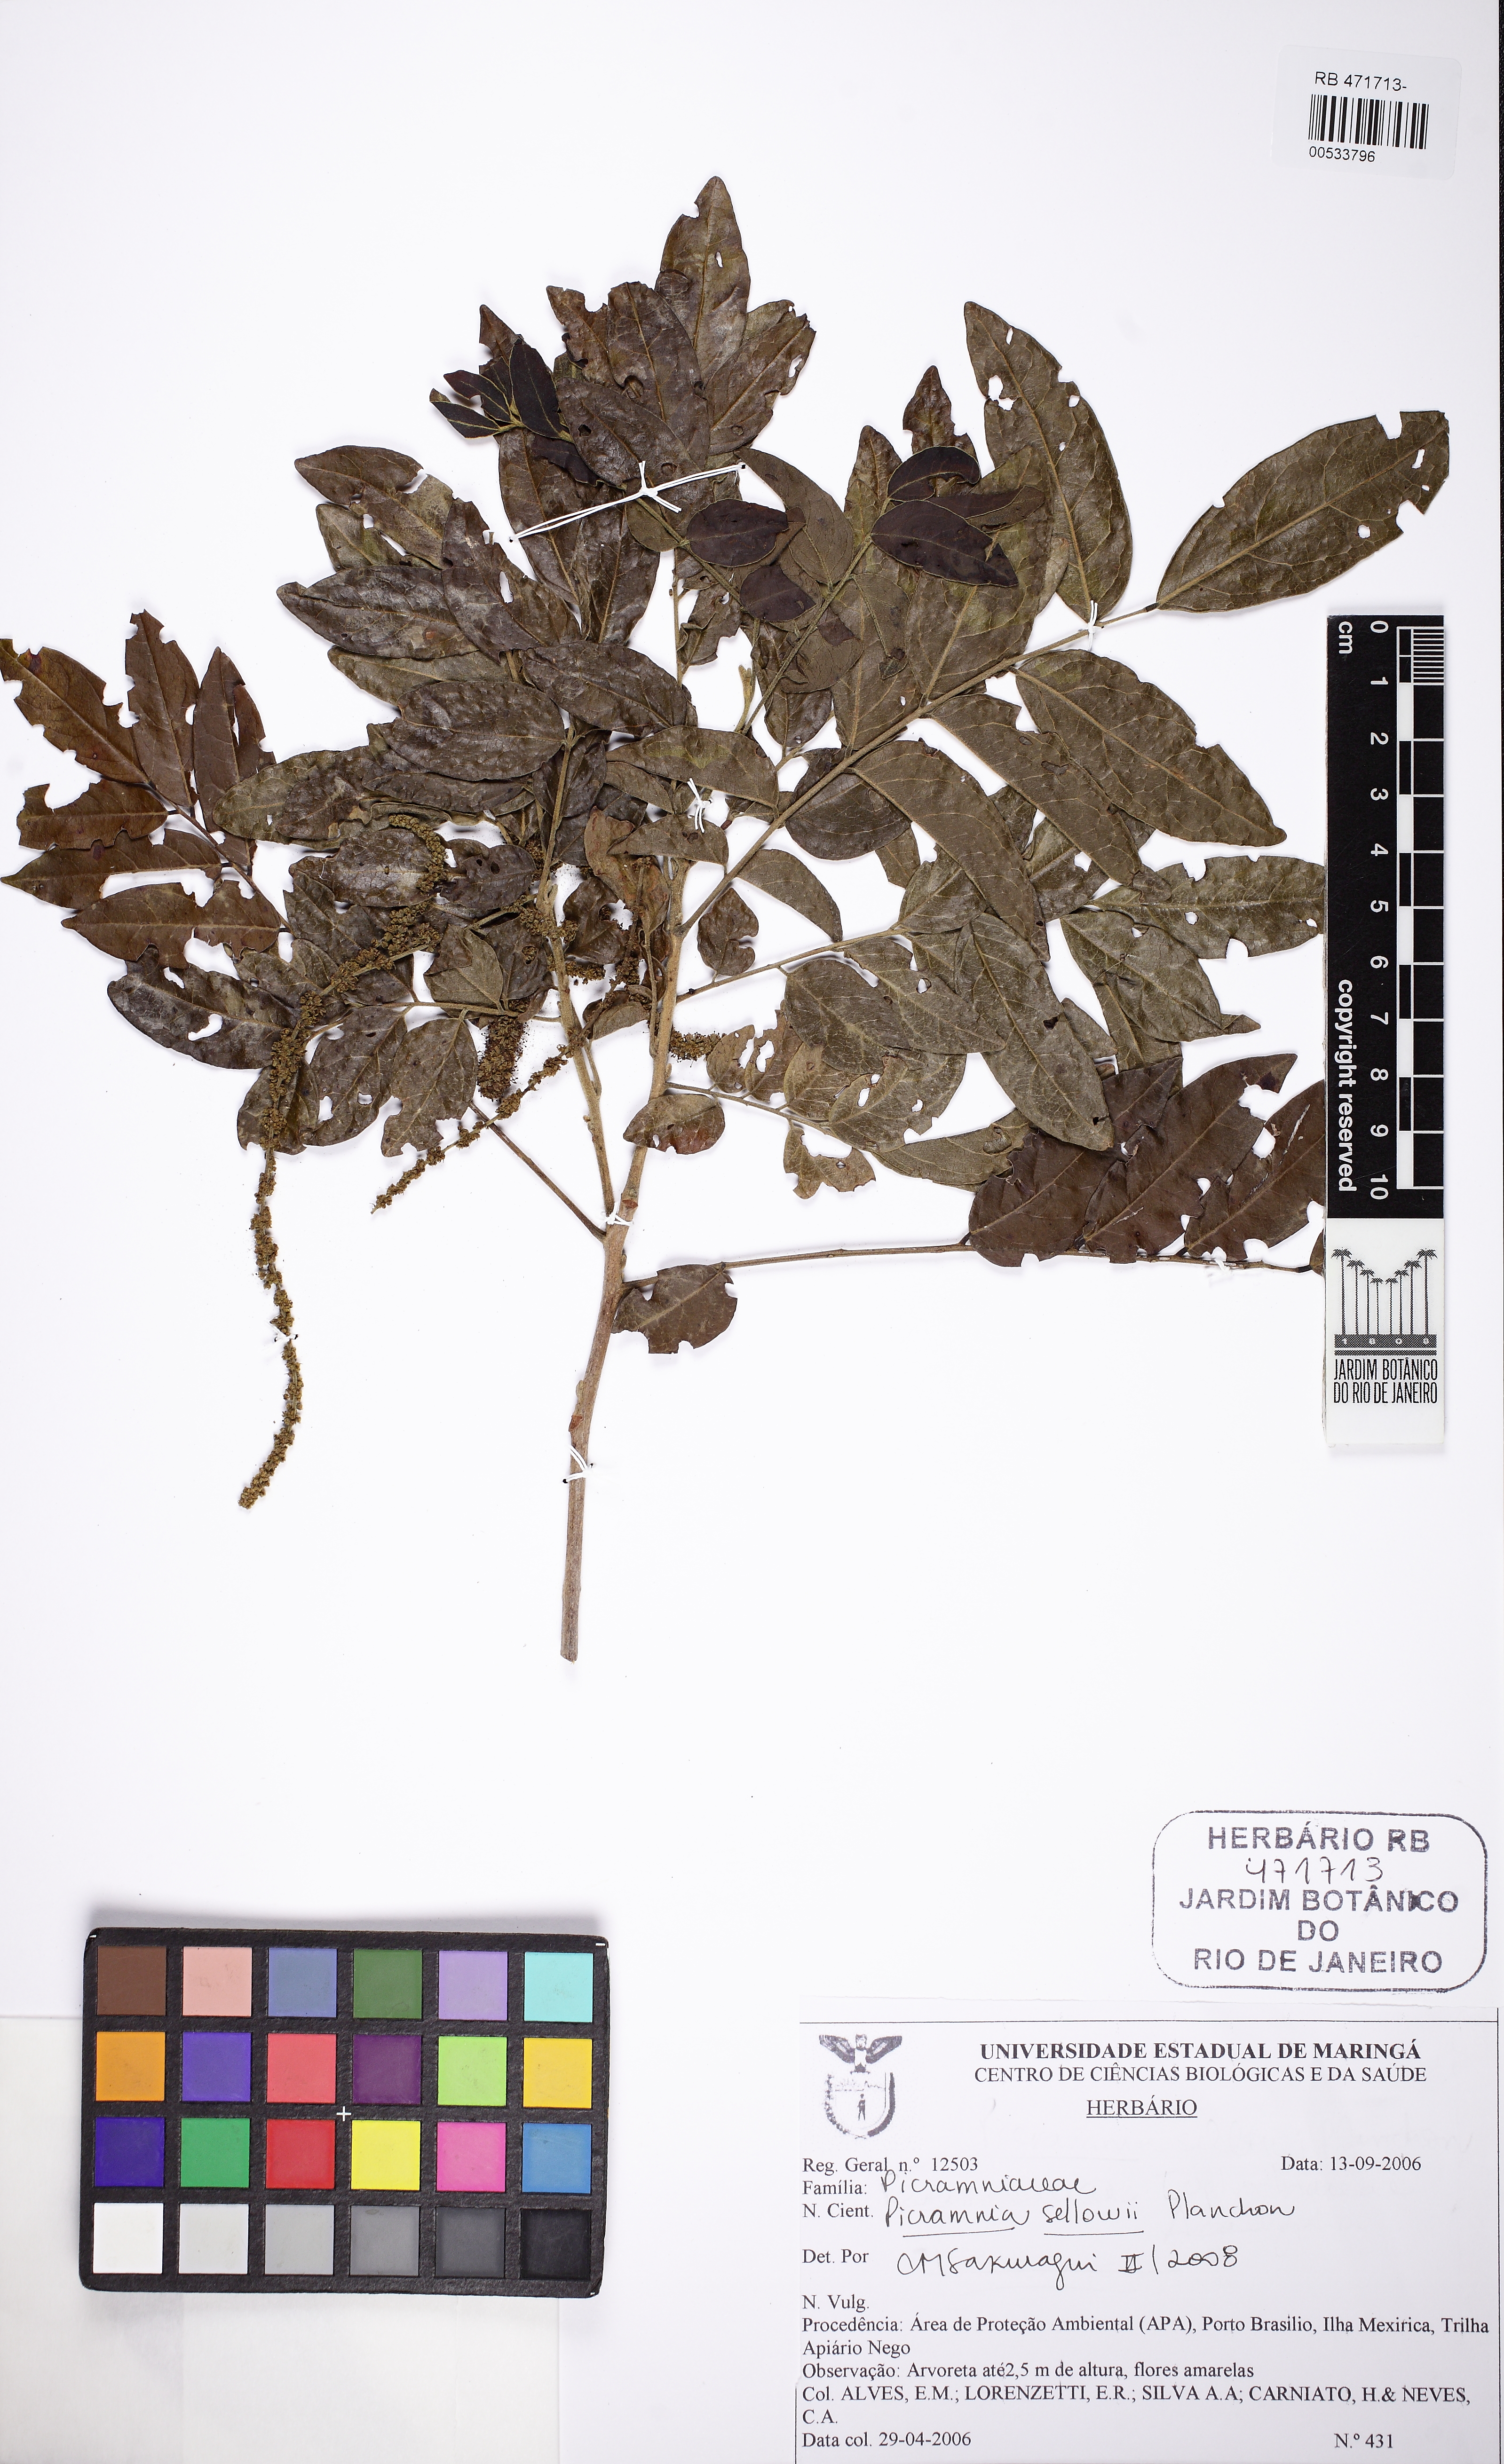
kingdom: Plantae
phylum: Tracheophyta
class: Magnoliopsida
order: Picramniales
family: Picramniaceae
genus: Picramnia
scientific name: Picramnia sellowii
